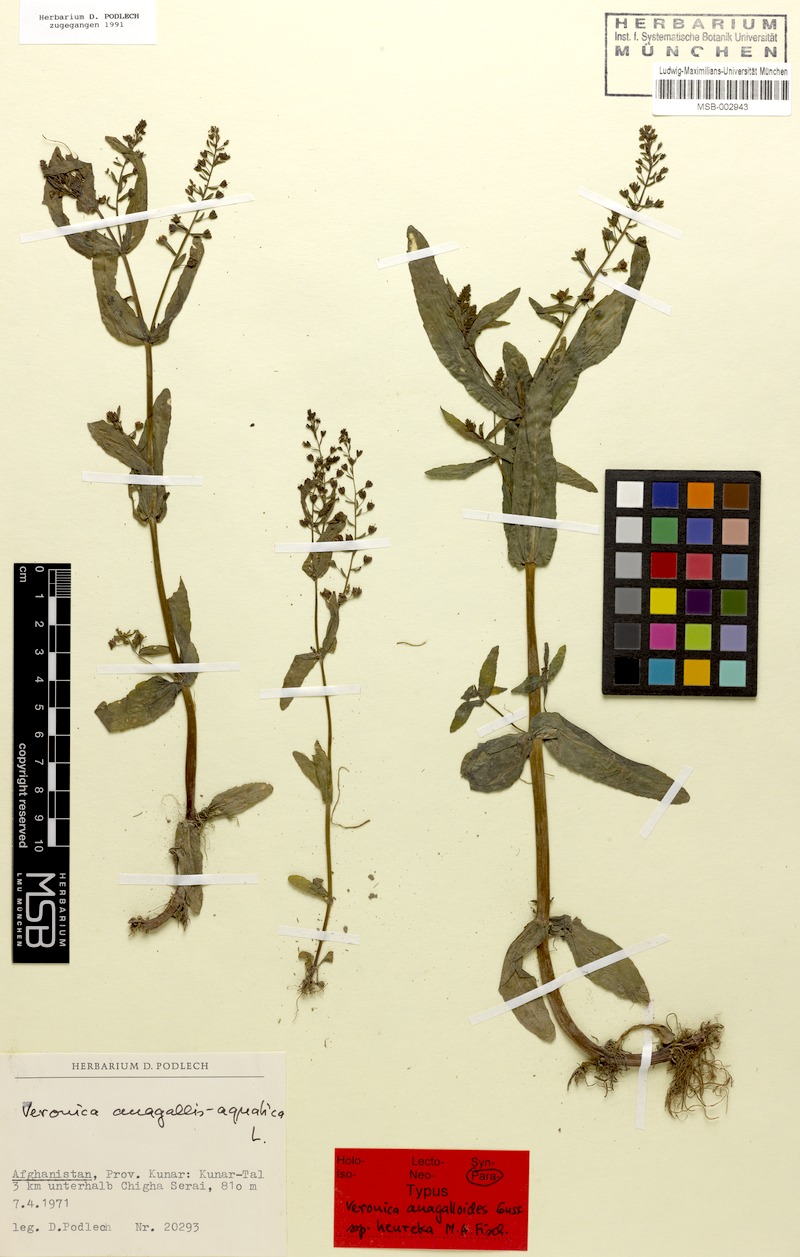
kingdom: Plantae
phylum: Tracheophyta
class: Magnoliopsida
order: Lamiales
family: Plantaginaceae
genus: Veronica
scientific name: Veronica heureka
